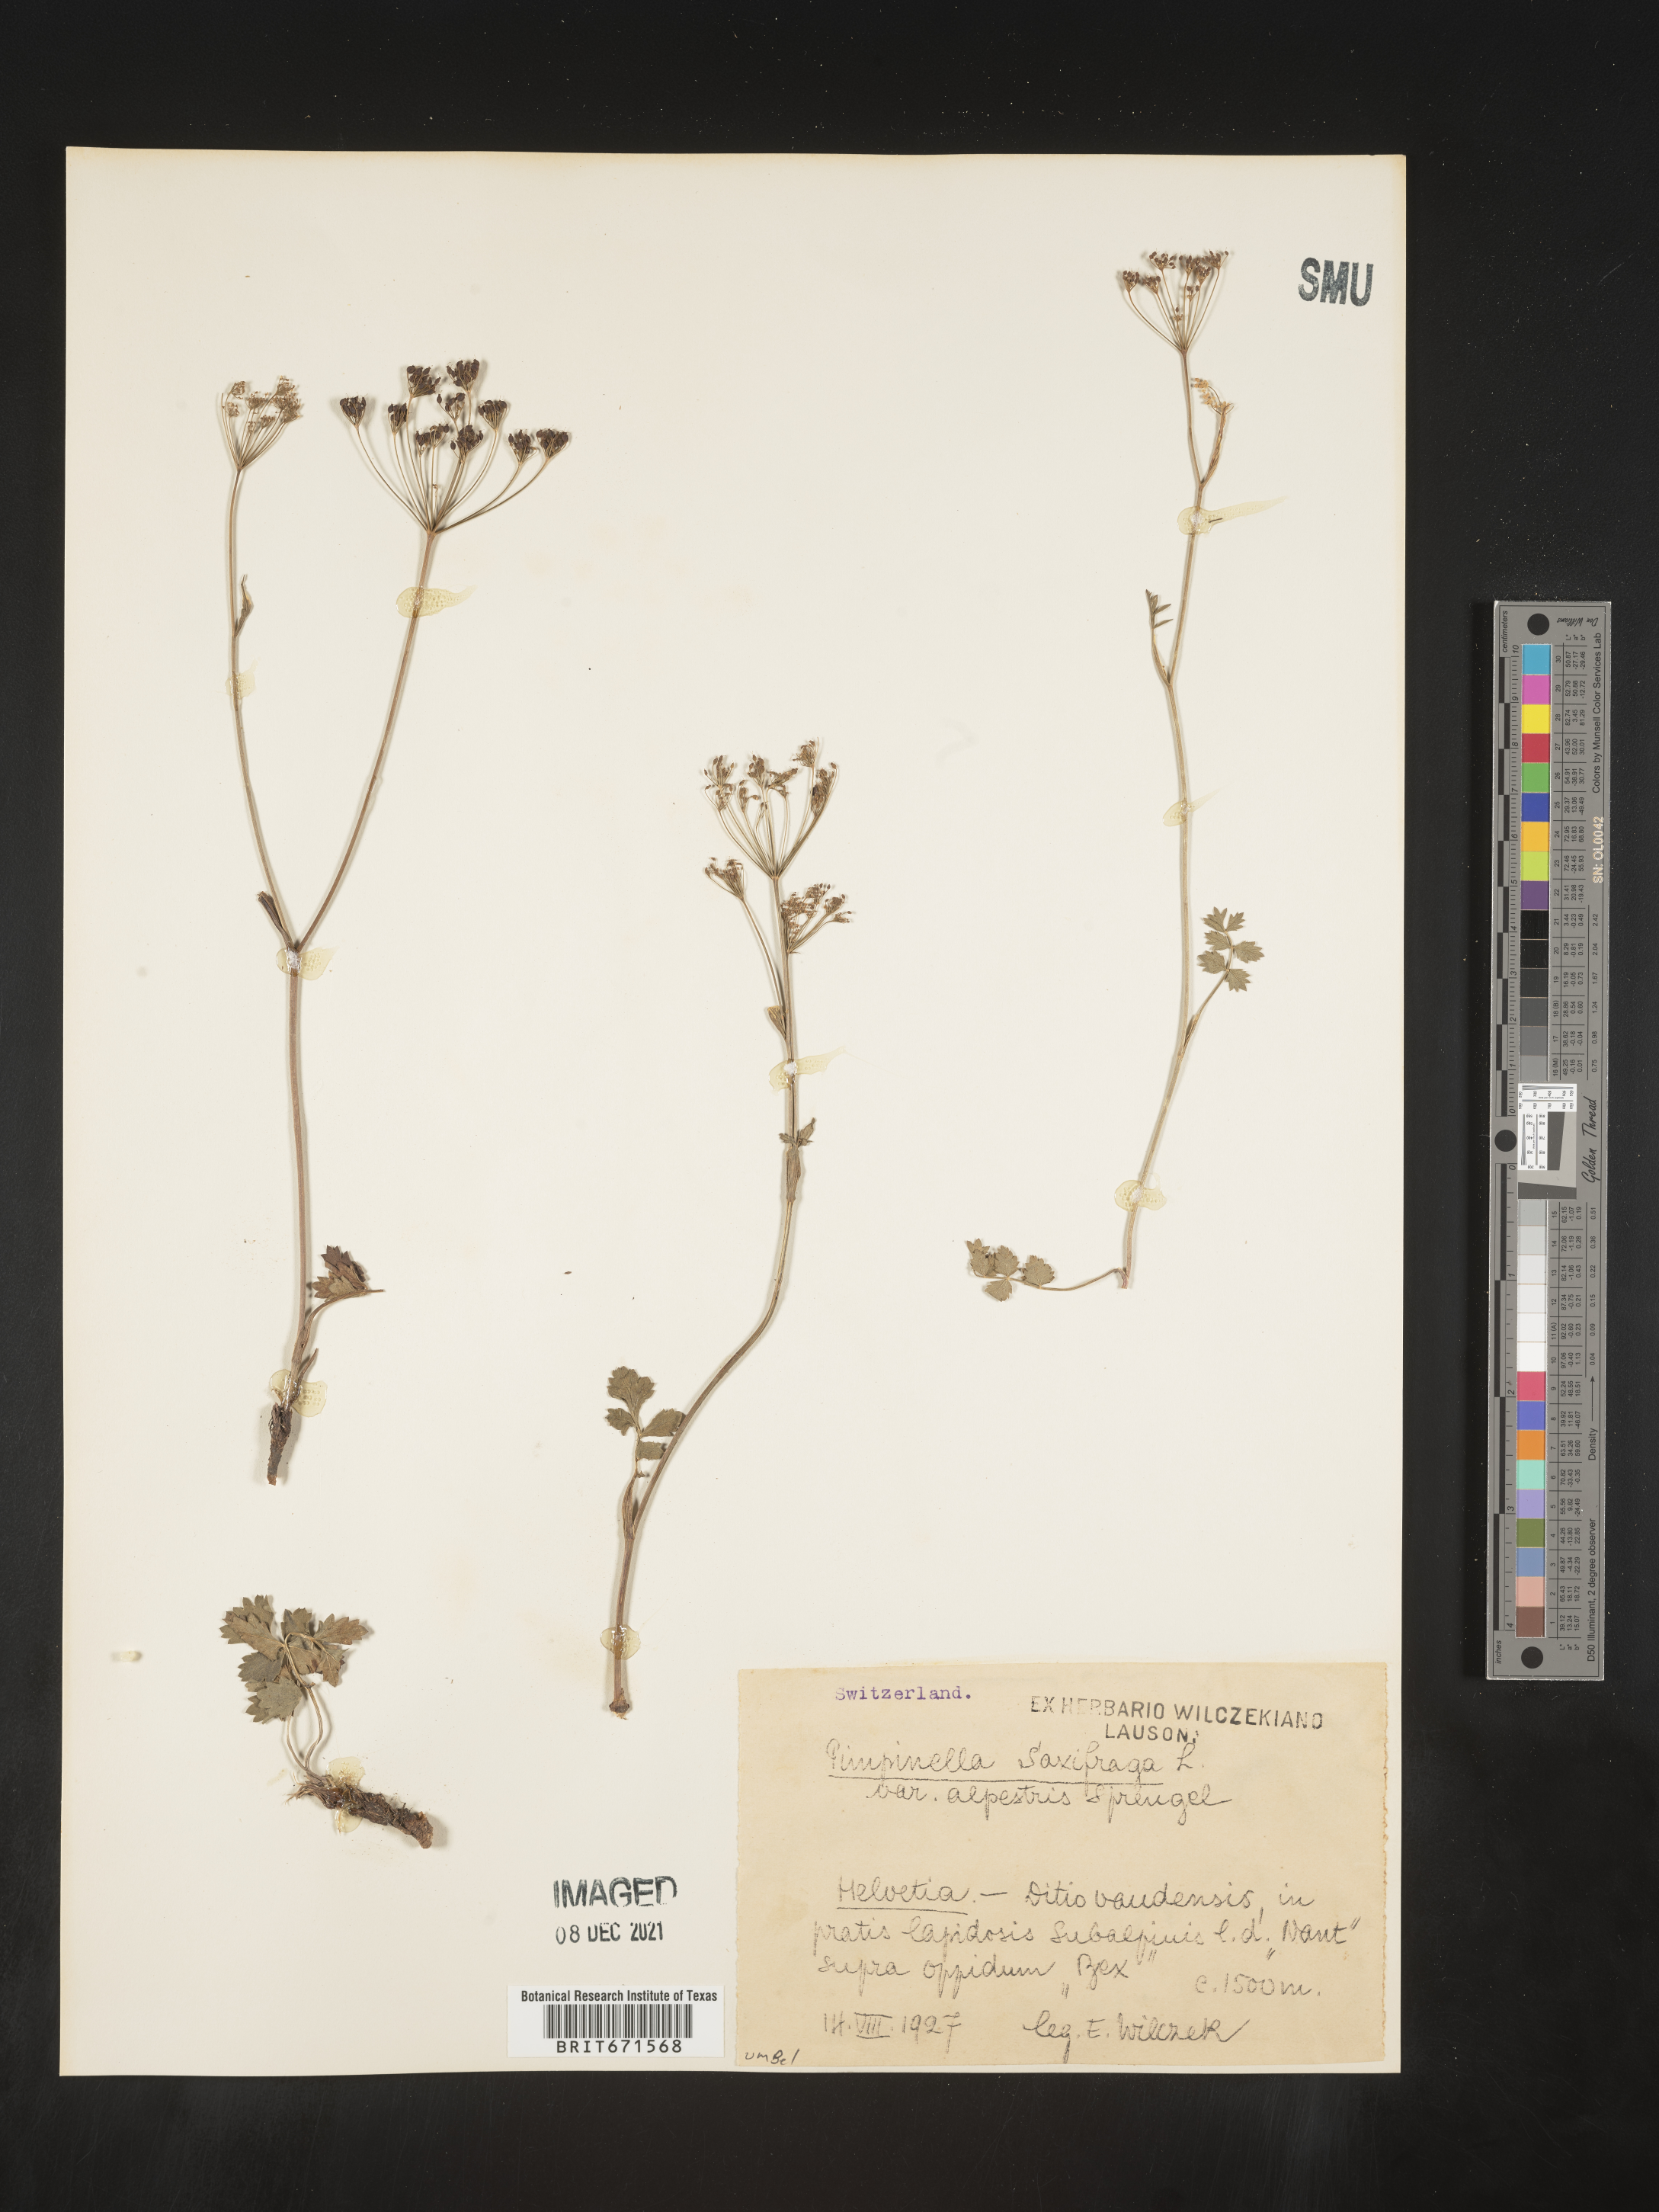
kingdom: Plantae
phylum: Tracheophyta
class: Magnoliopsida
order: Apiales
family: Apiaceae
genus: Pimpinella
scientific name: Pimpinella
